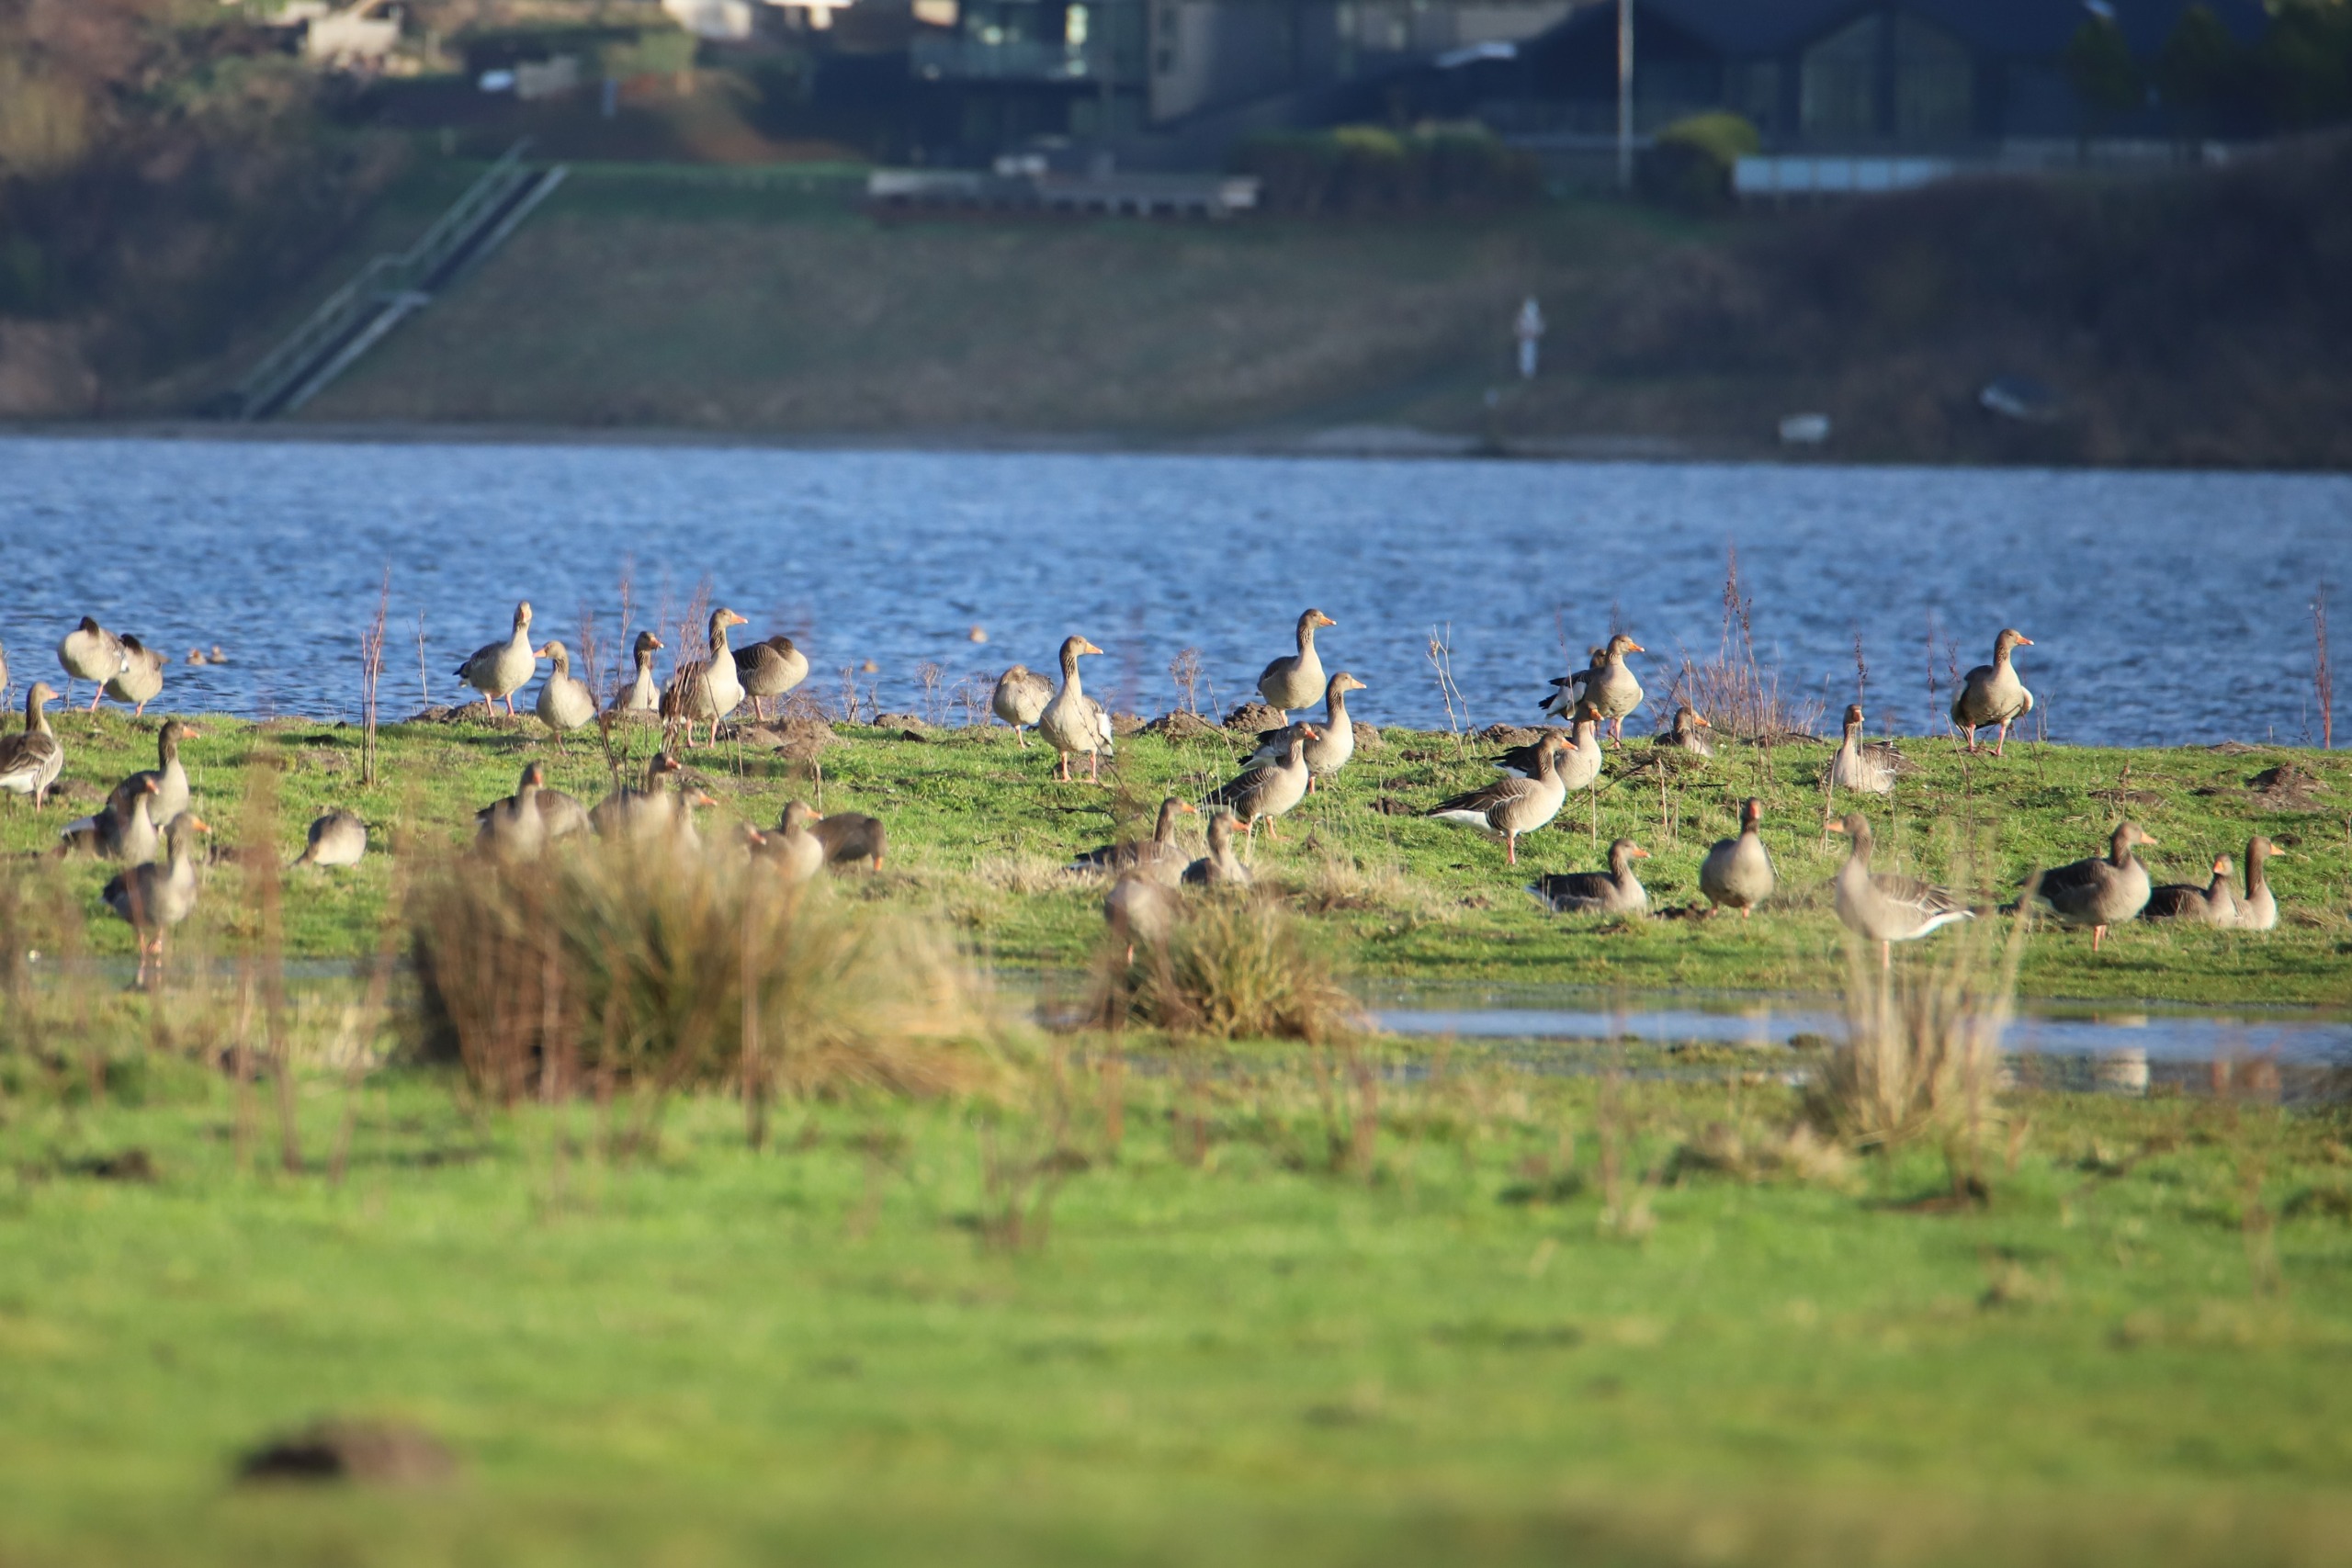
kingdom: Animalia
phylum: Chordata
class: Aves
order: Anseriformes
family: Anatidae
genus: Anser
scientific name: Anser anser
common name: Grågås
